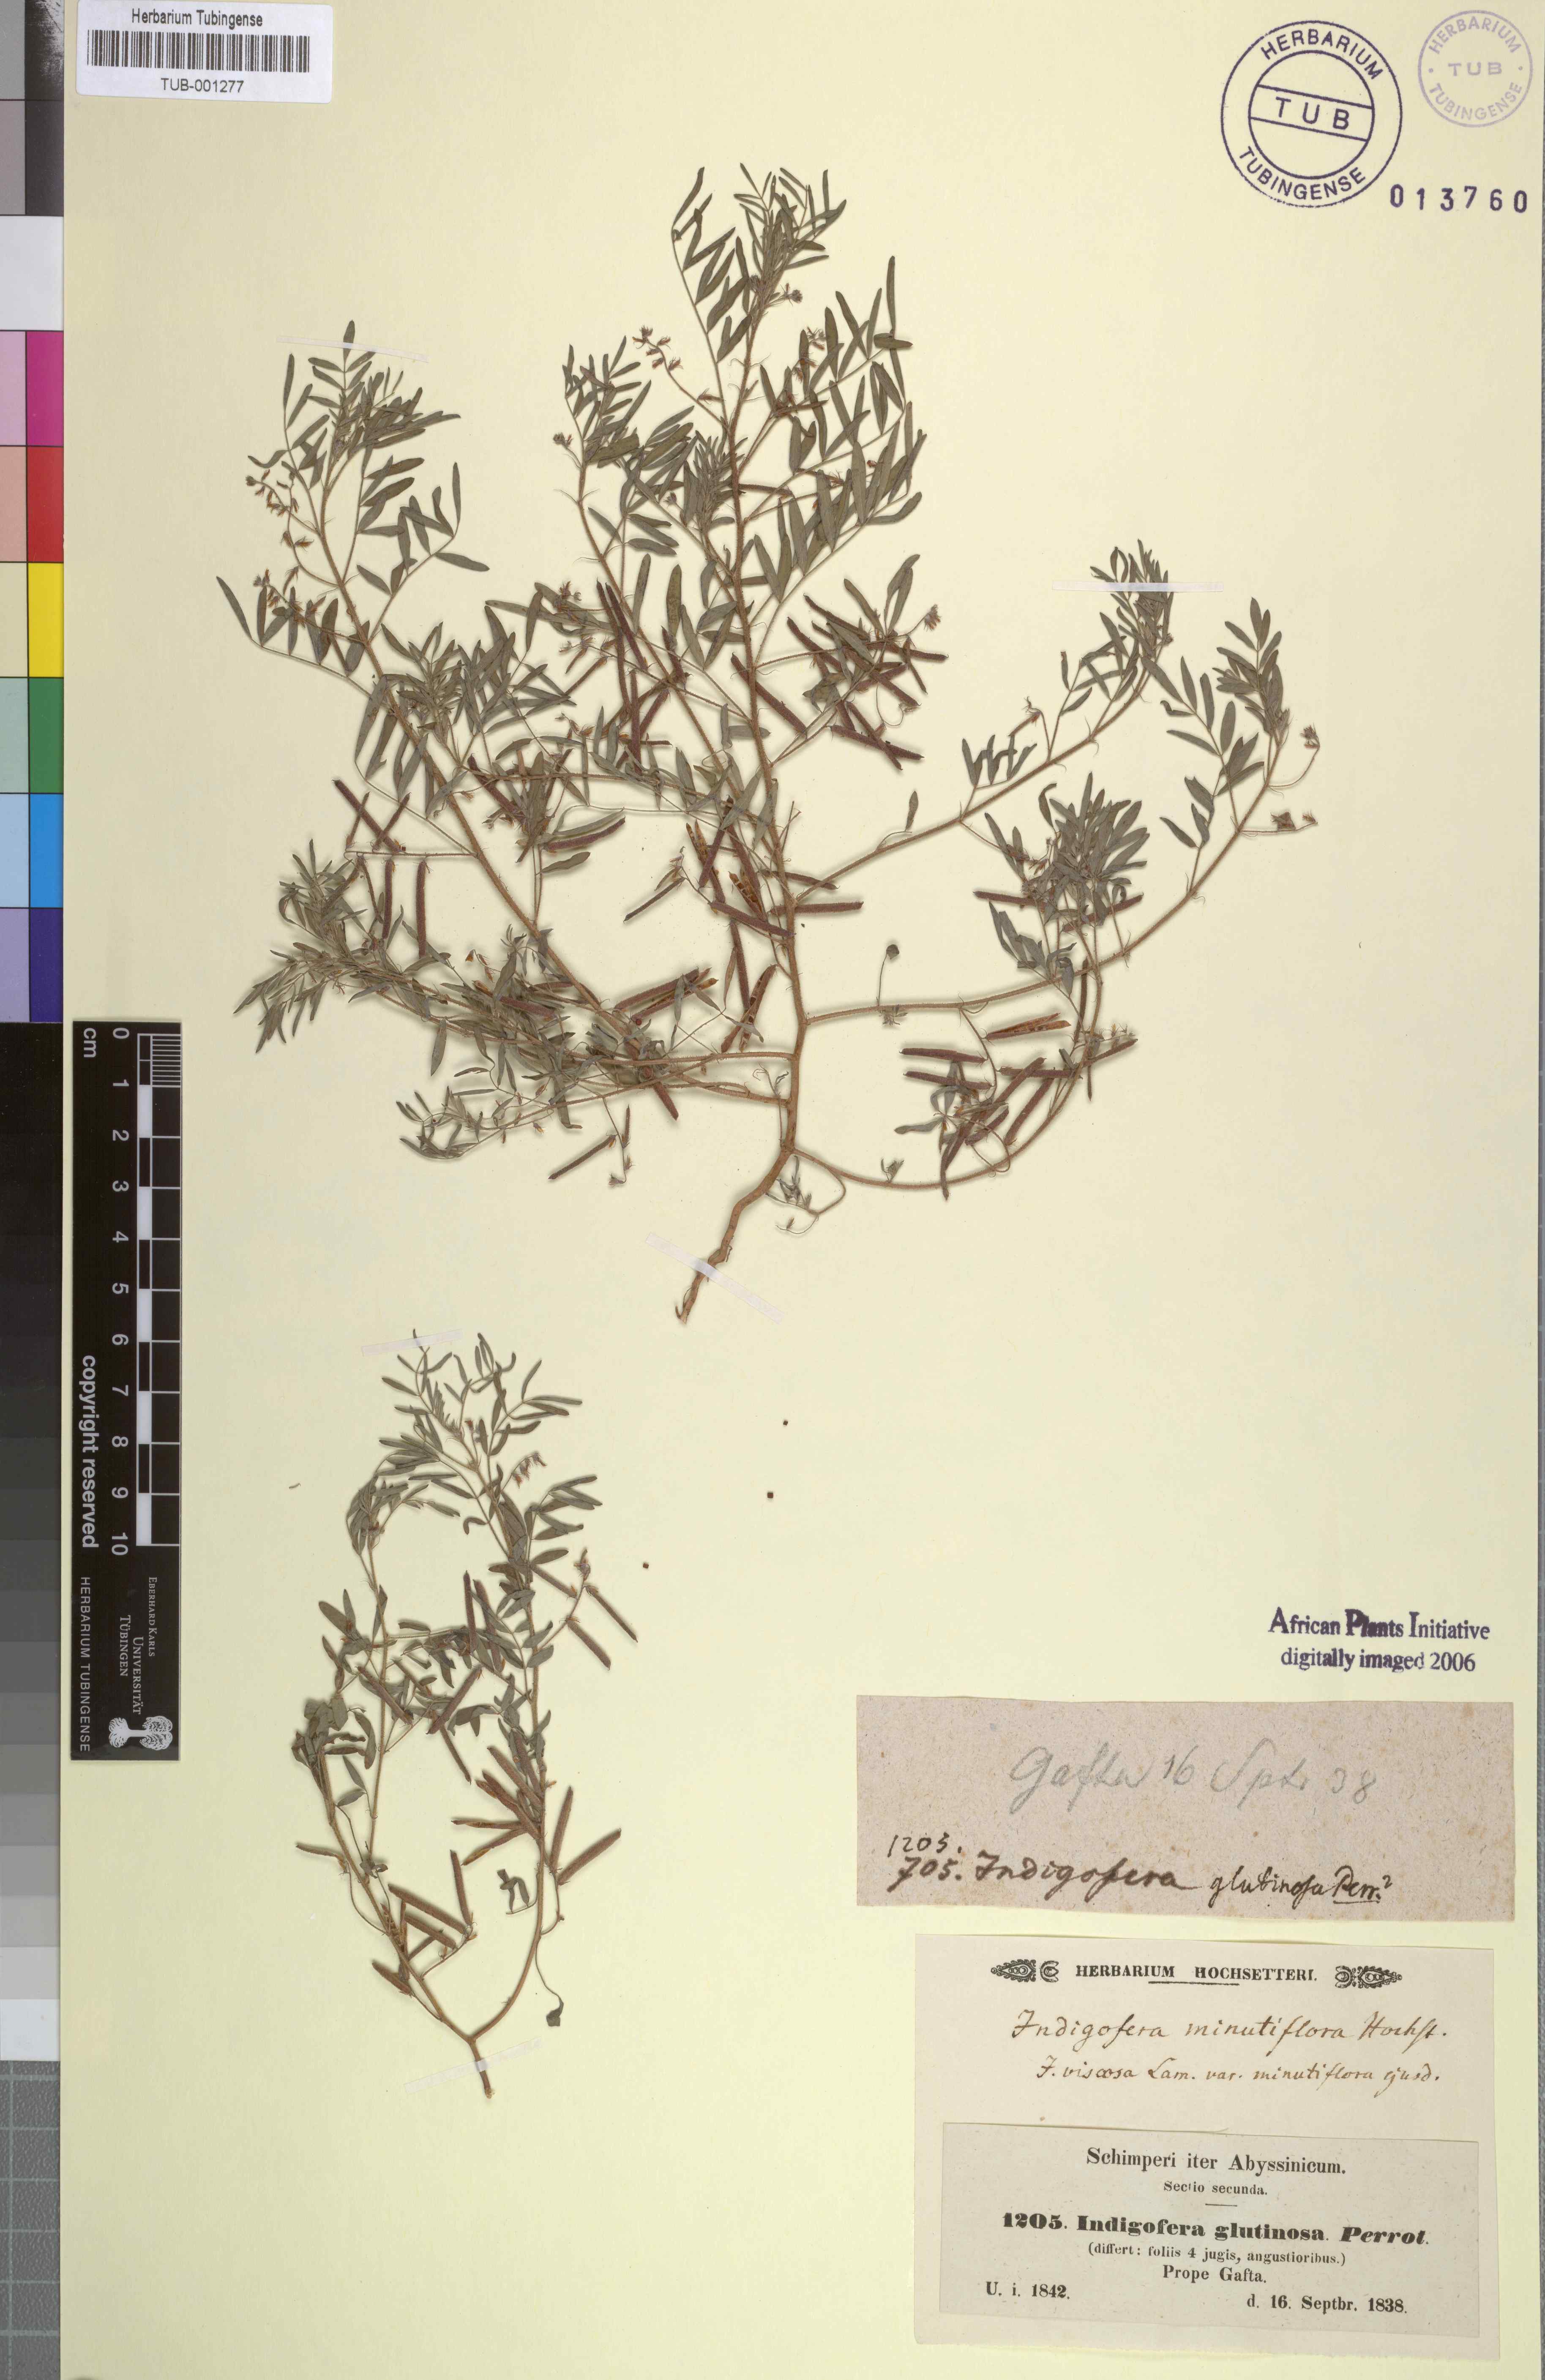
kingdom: Plantae
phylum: Tracheophyta
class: Magnoliopsida
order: Fabales
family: Fabaceae
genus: Indigofera
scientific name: Indigofera colutea
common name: Rusty indigo
